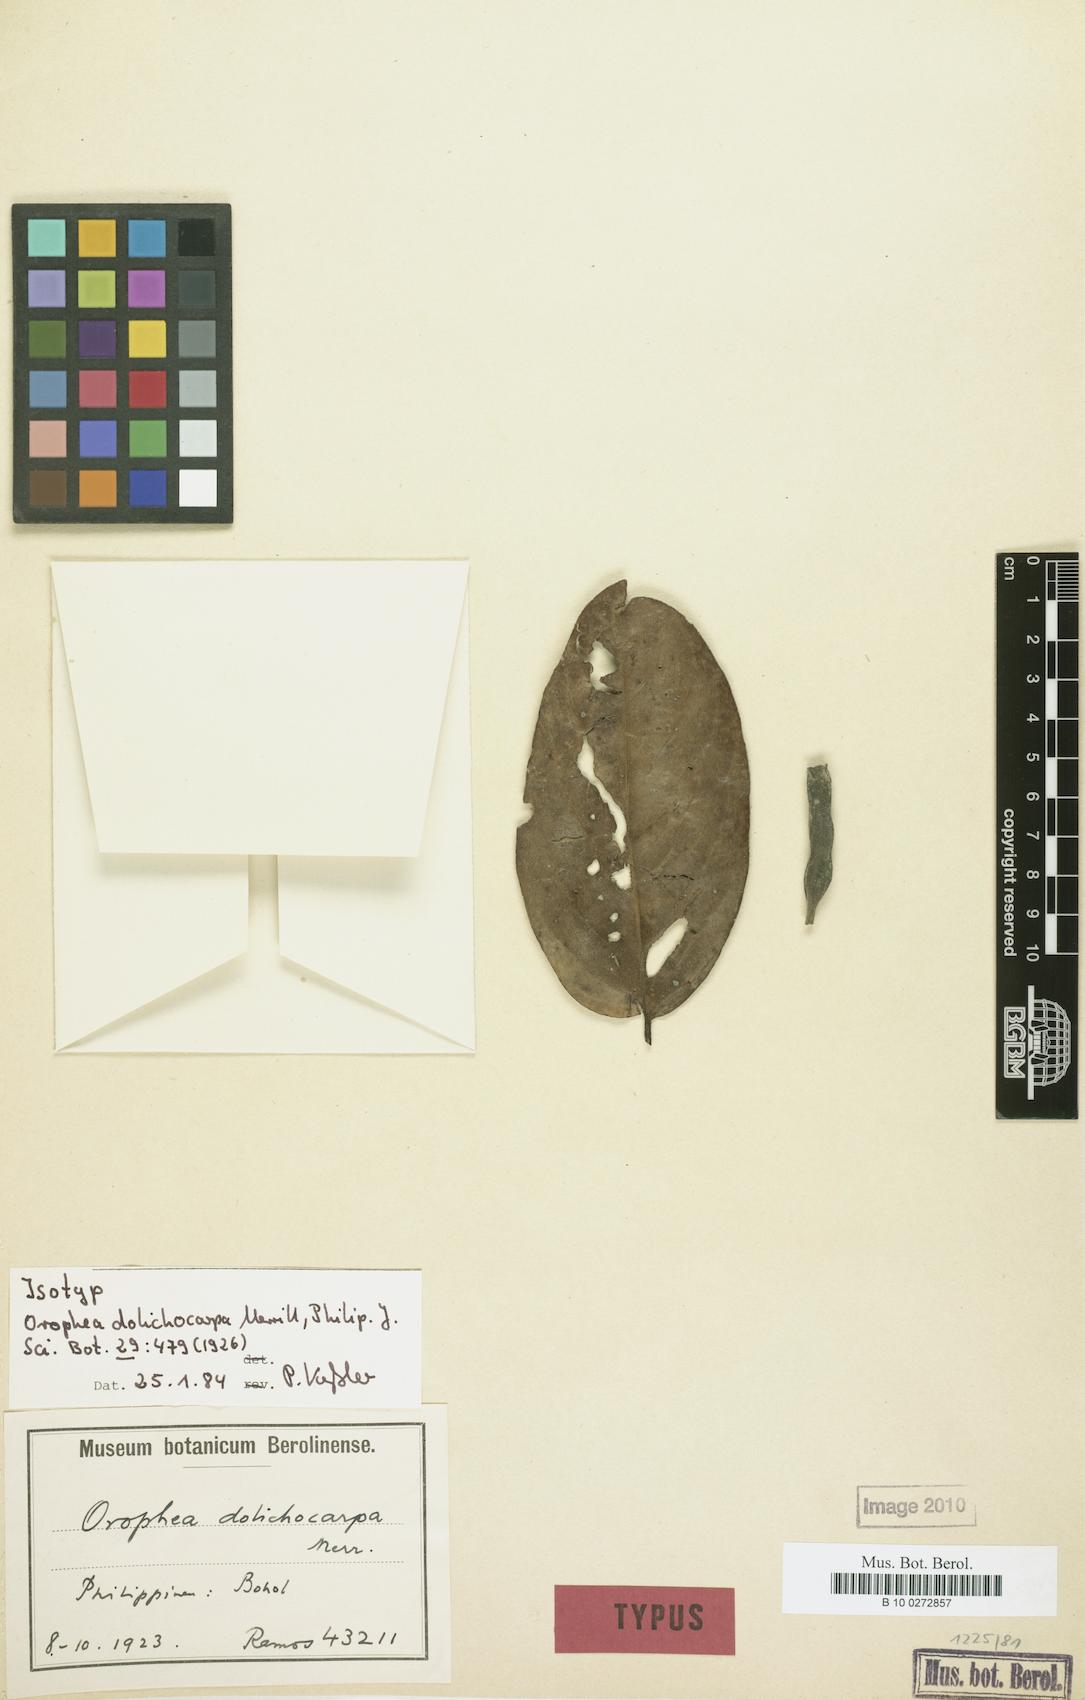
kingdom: Plantae
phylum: Tracheophyta
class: Magnoliopsida
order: Magnoliales
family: Annonaceae
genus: Orophea
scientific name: Orophea dolichocarpa
